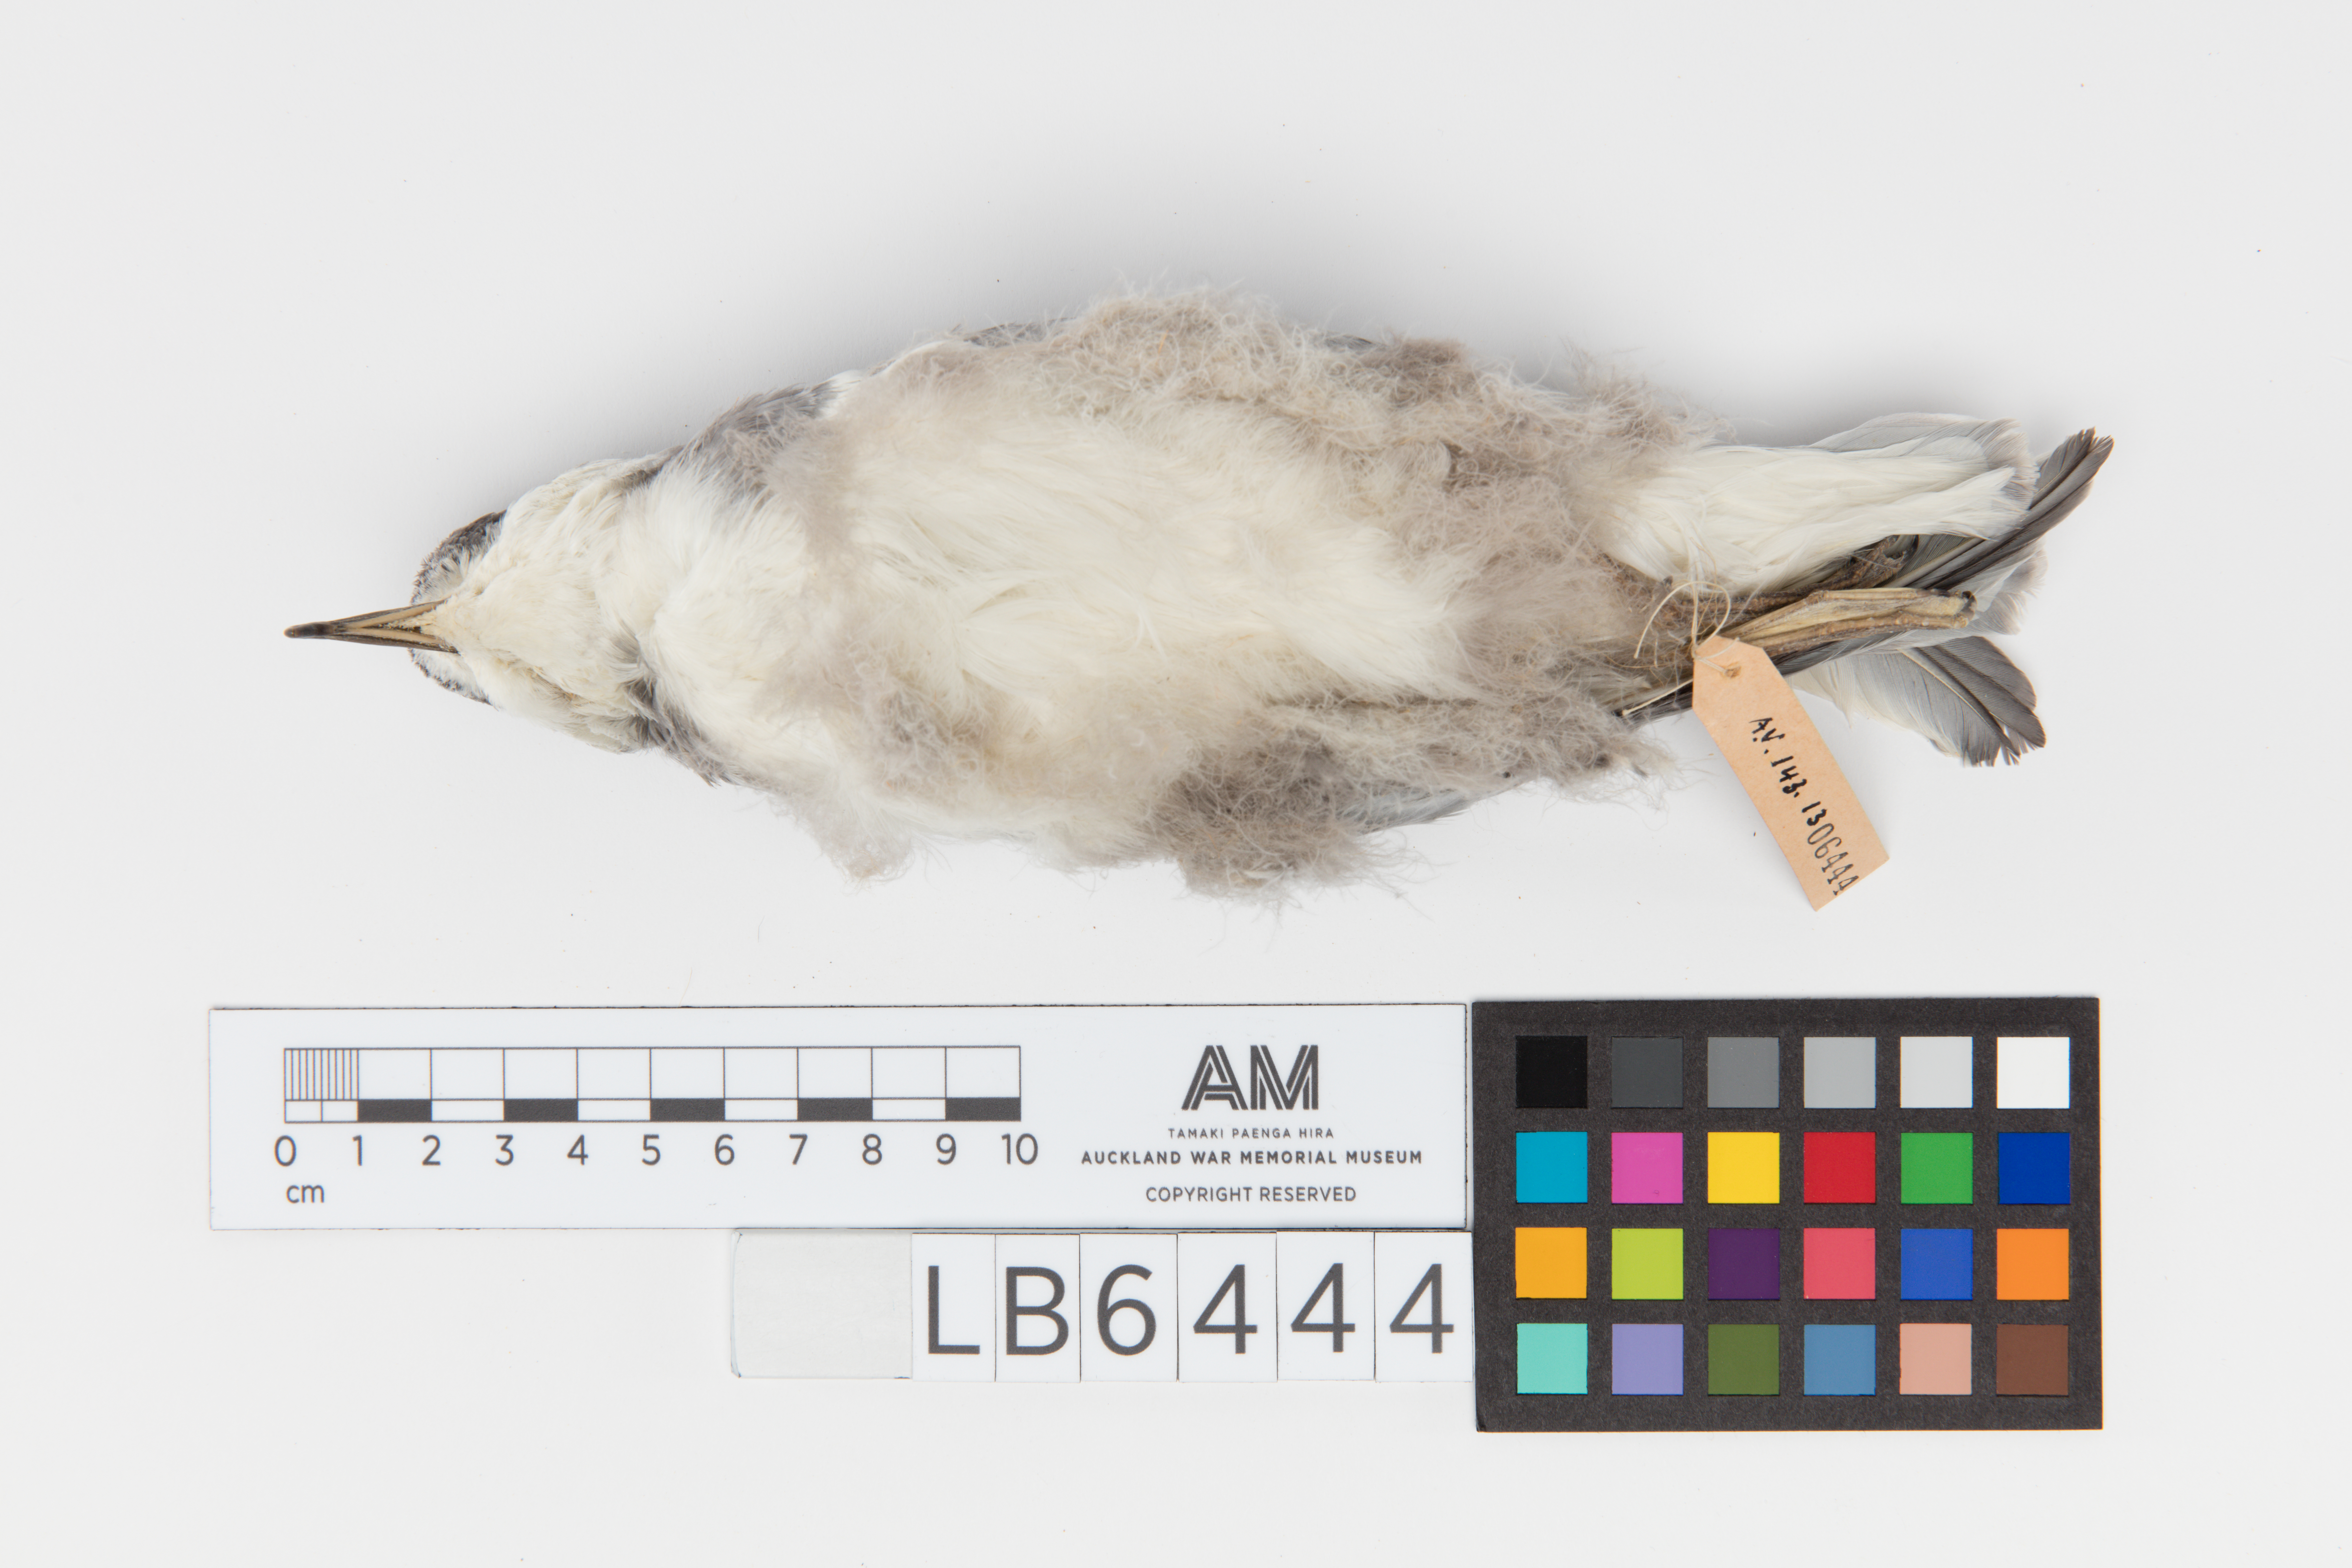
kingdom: Animalia
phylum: Chordata
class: Aves
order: Procellariiformes
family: Procellariidae
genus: Halobaena
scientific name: Halobaena caerulea
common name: Blue petrel
